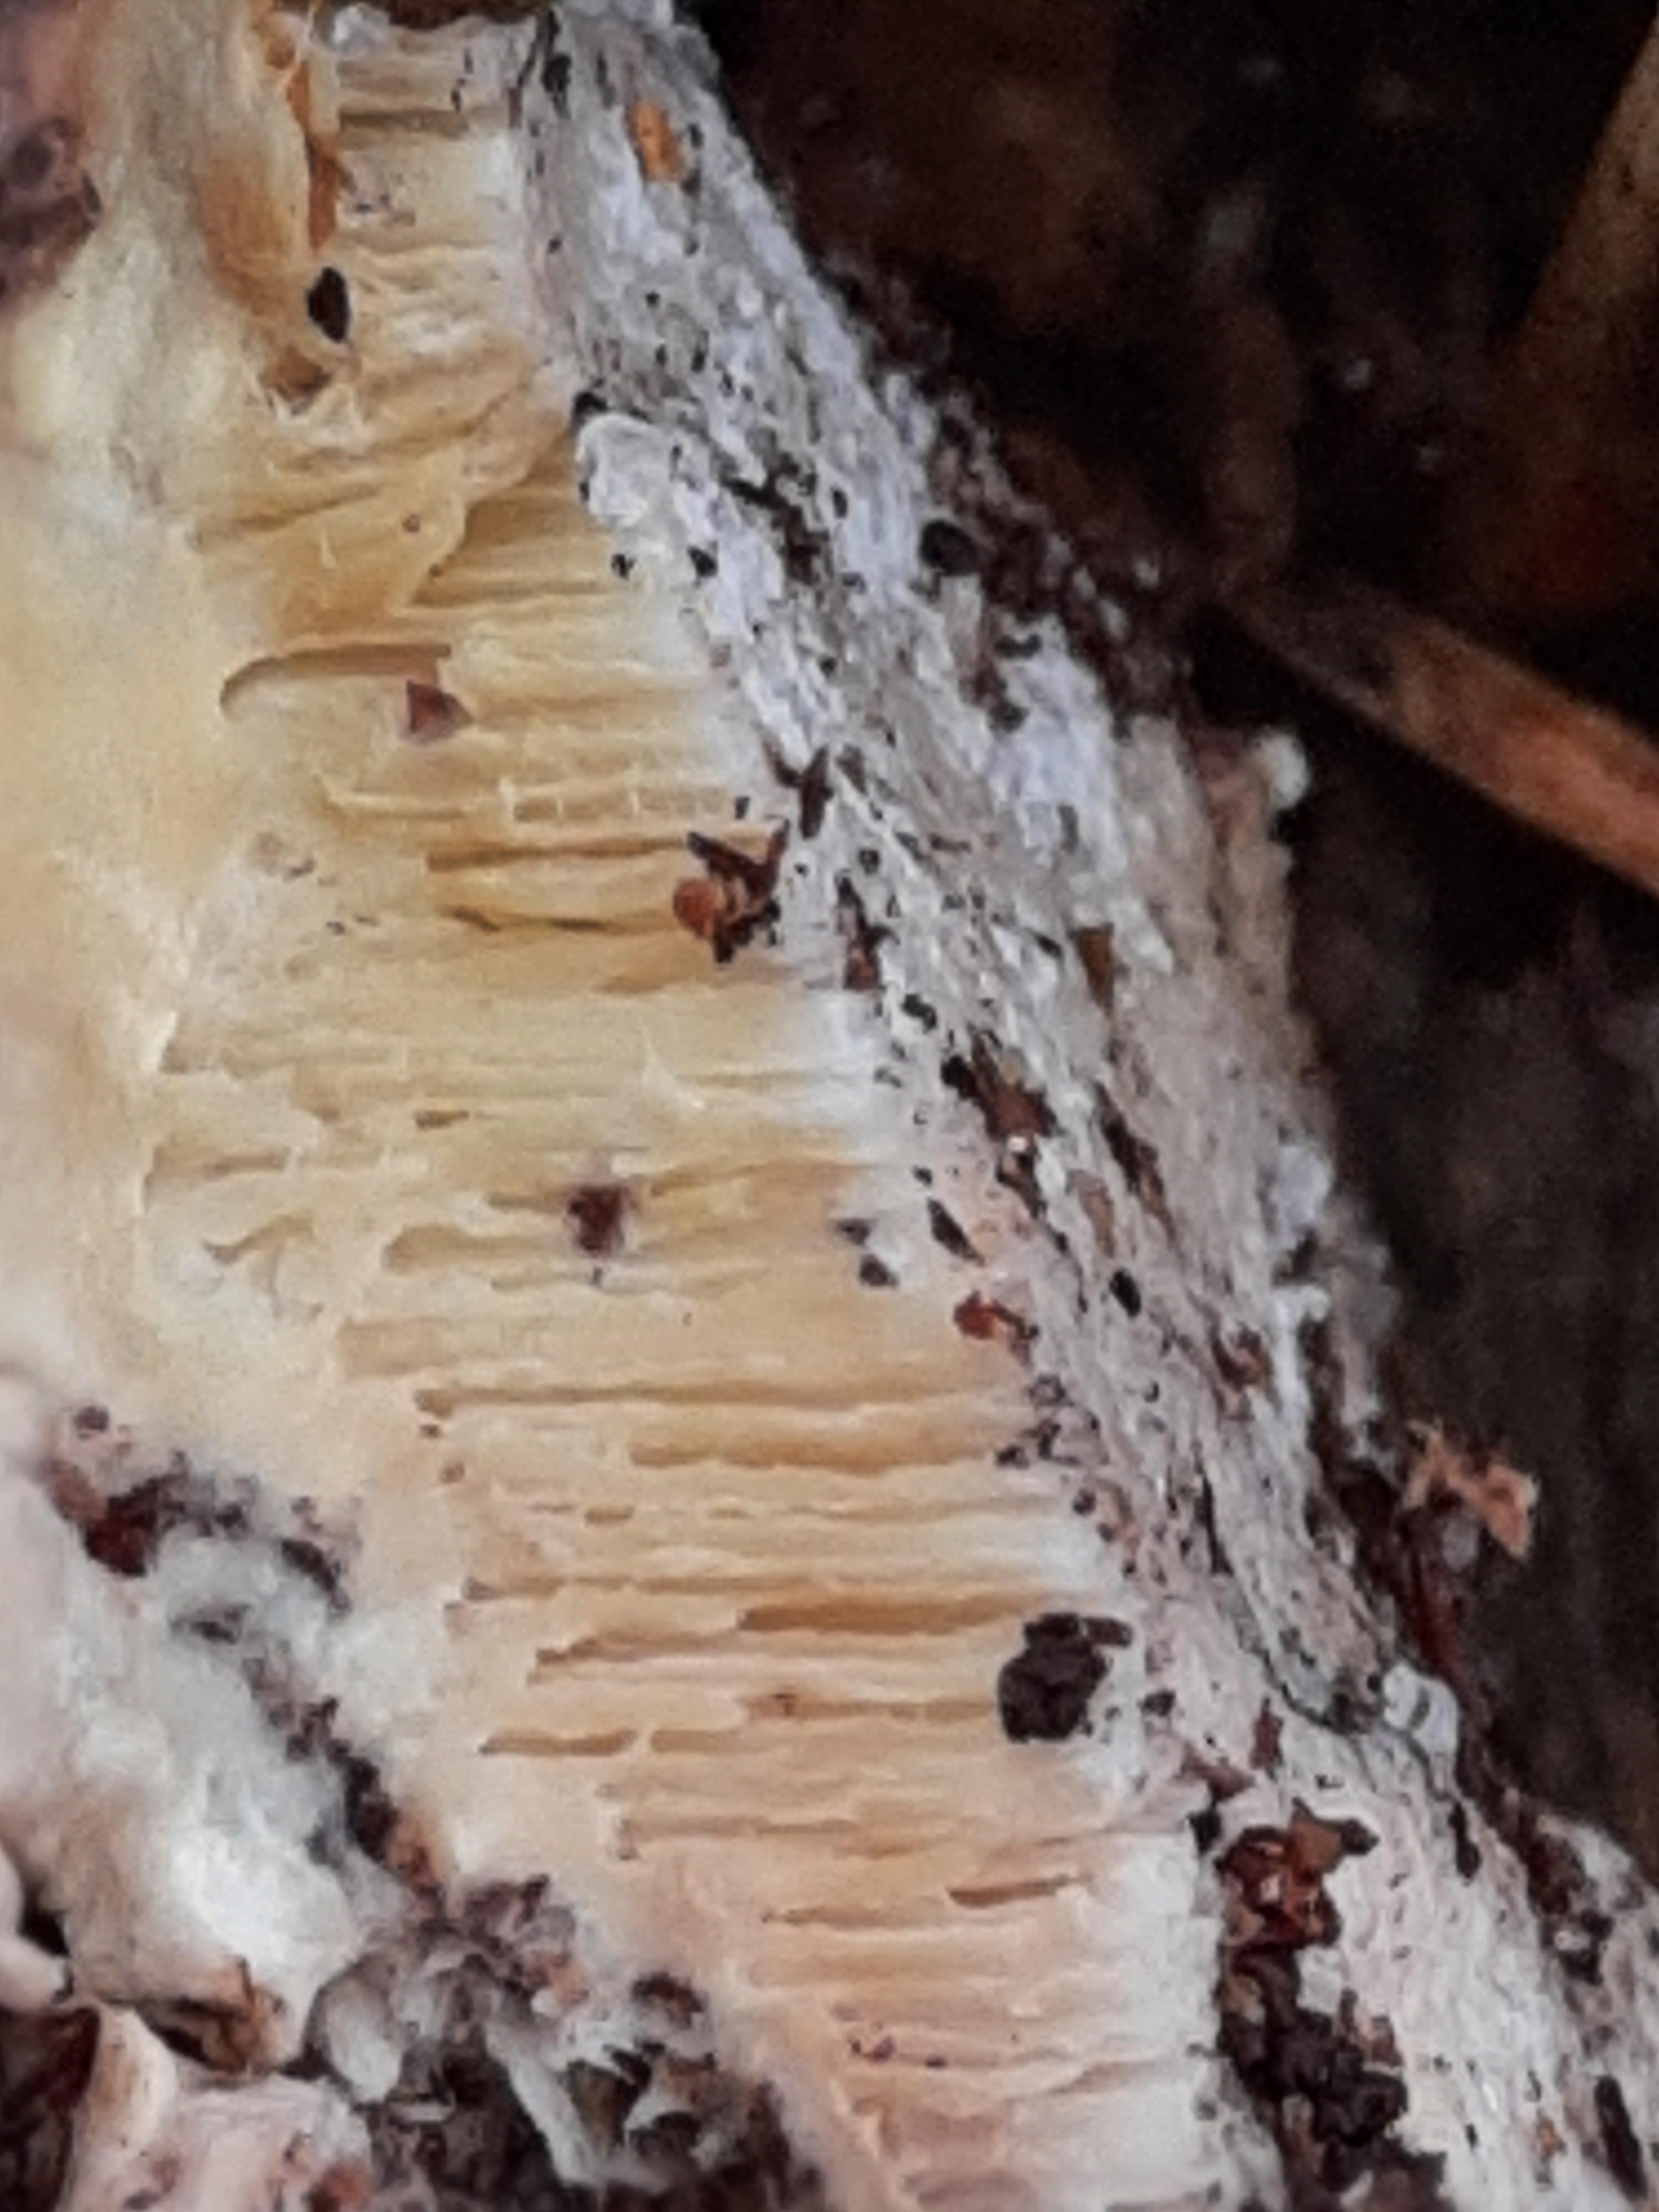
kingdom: Fungi
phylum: Basidiomycota
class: Agaricomycetes
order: Polyporales
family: Fomitopsidaceae
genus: Fomitopsis
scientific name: Fomitopsis pinicola
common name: randbæltet hovporesvamp
